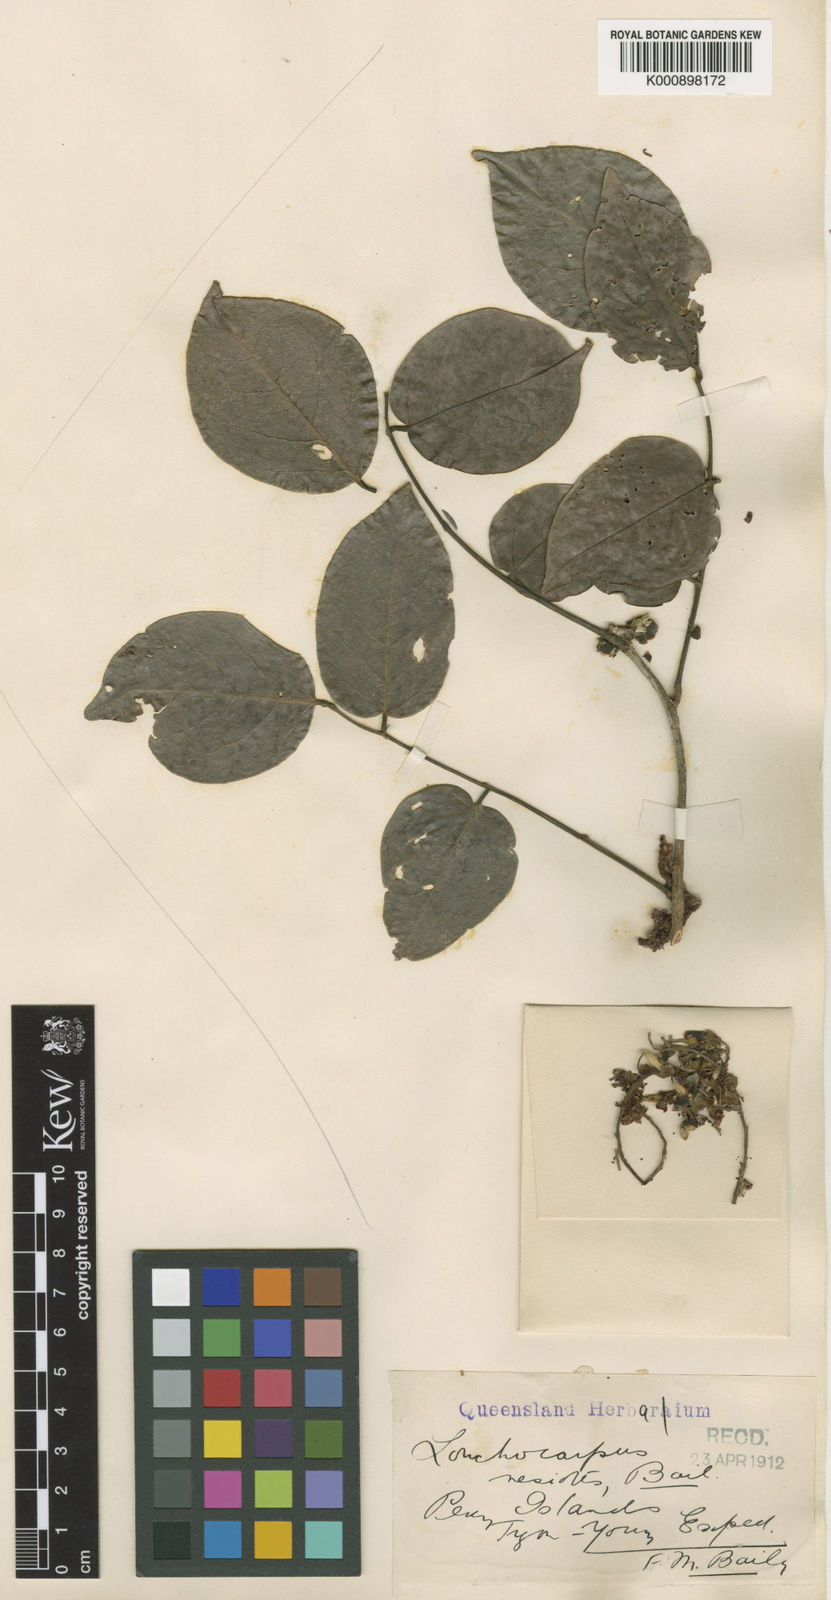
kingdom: Plantae
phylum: Tracheophyta
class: Magnoliopsida
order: Fabales
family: Fabaceae
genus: Austrosteenisia
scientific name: Austrosteenisia blackii
